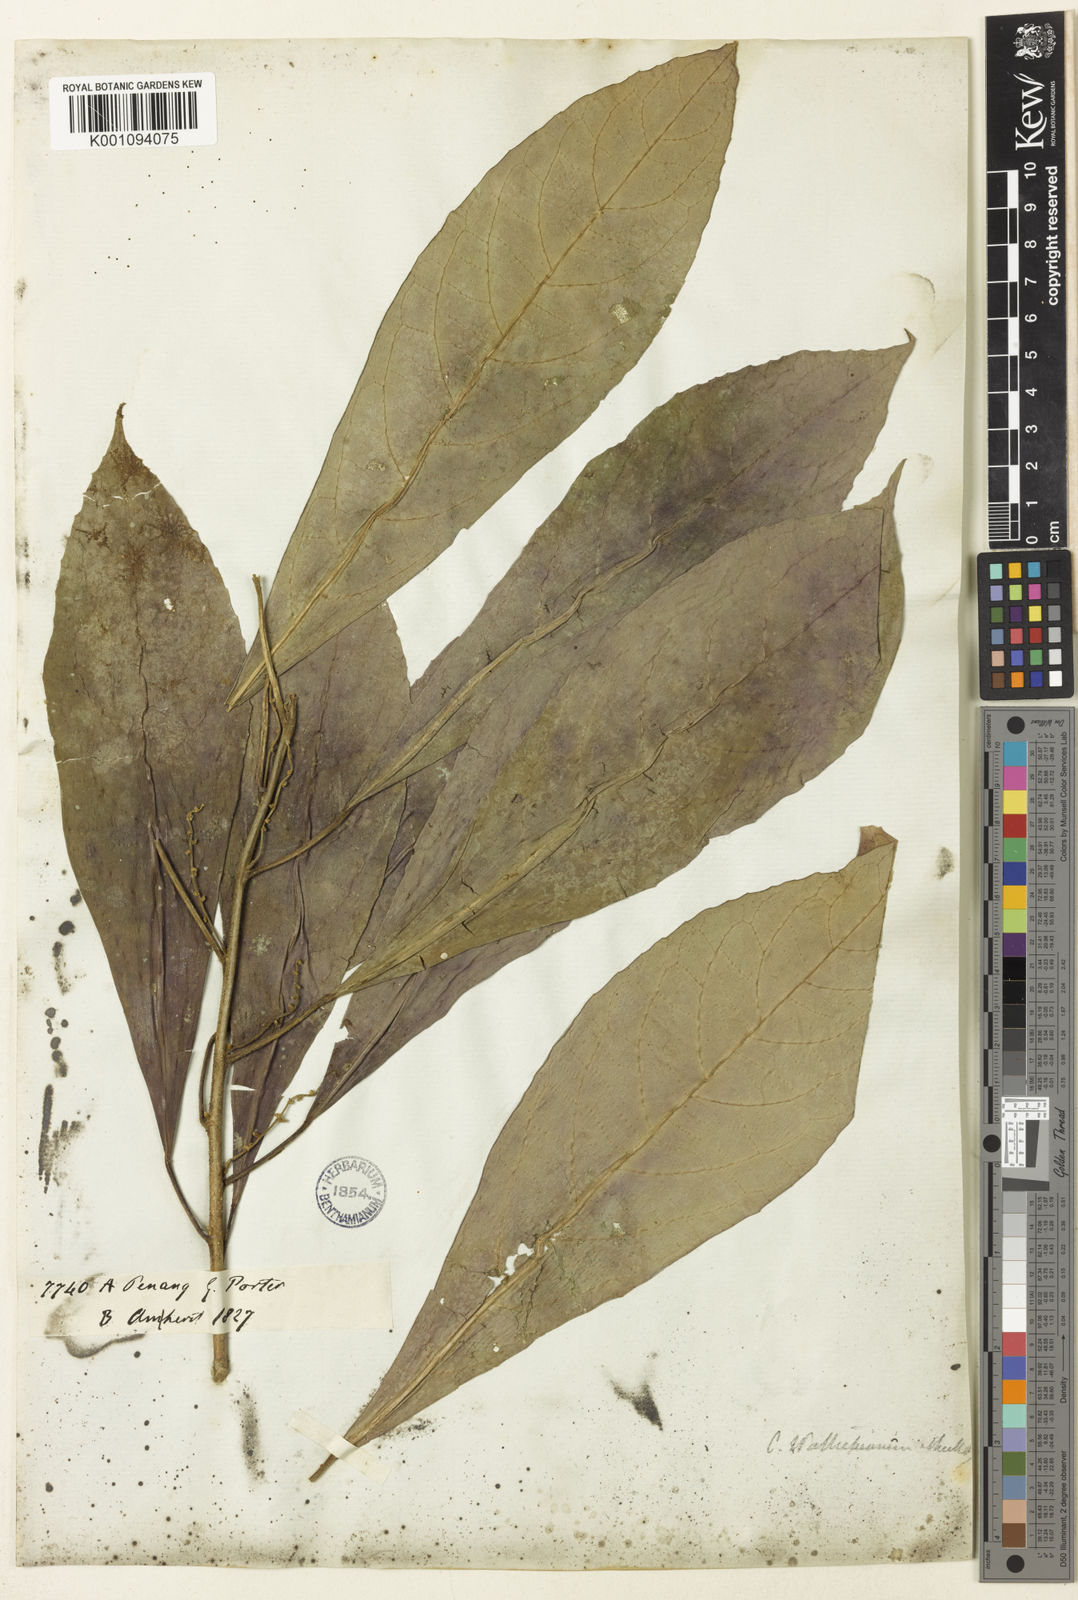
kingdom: Plantae
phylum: Tracheophyta
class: Magnoliopsida
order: Malpighiales
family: Euphorbiaceae
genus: Claoxylon
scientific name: Claoxylon
